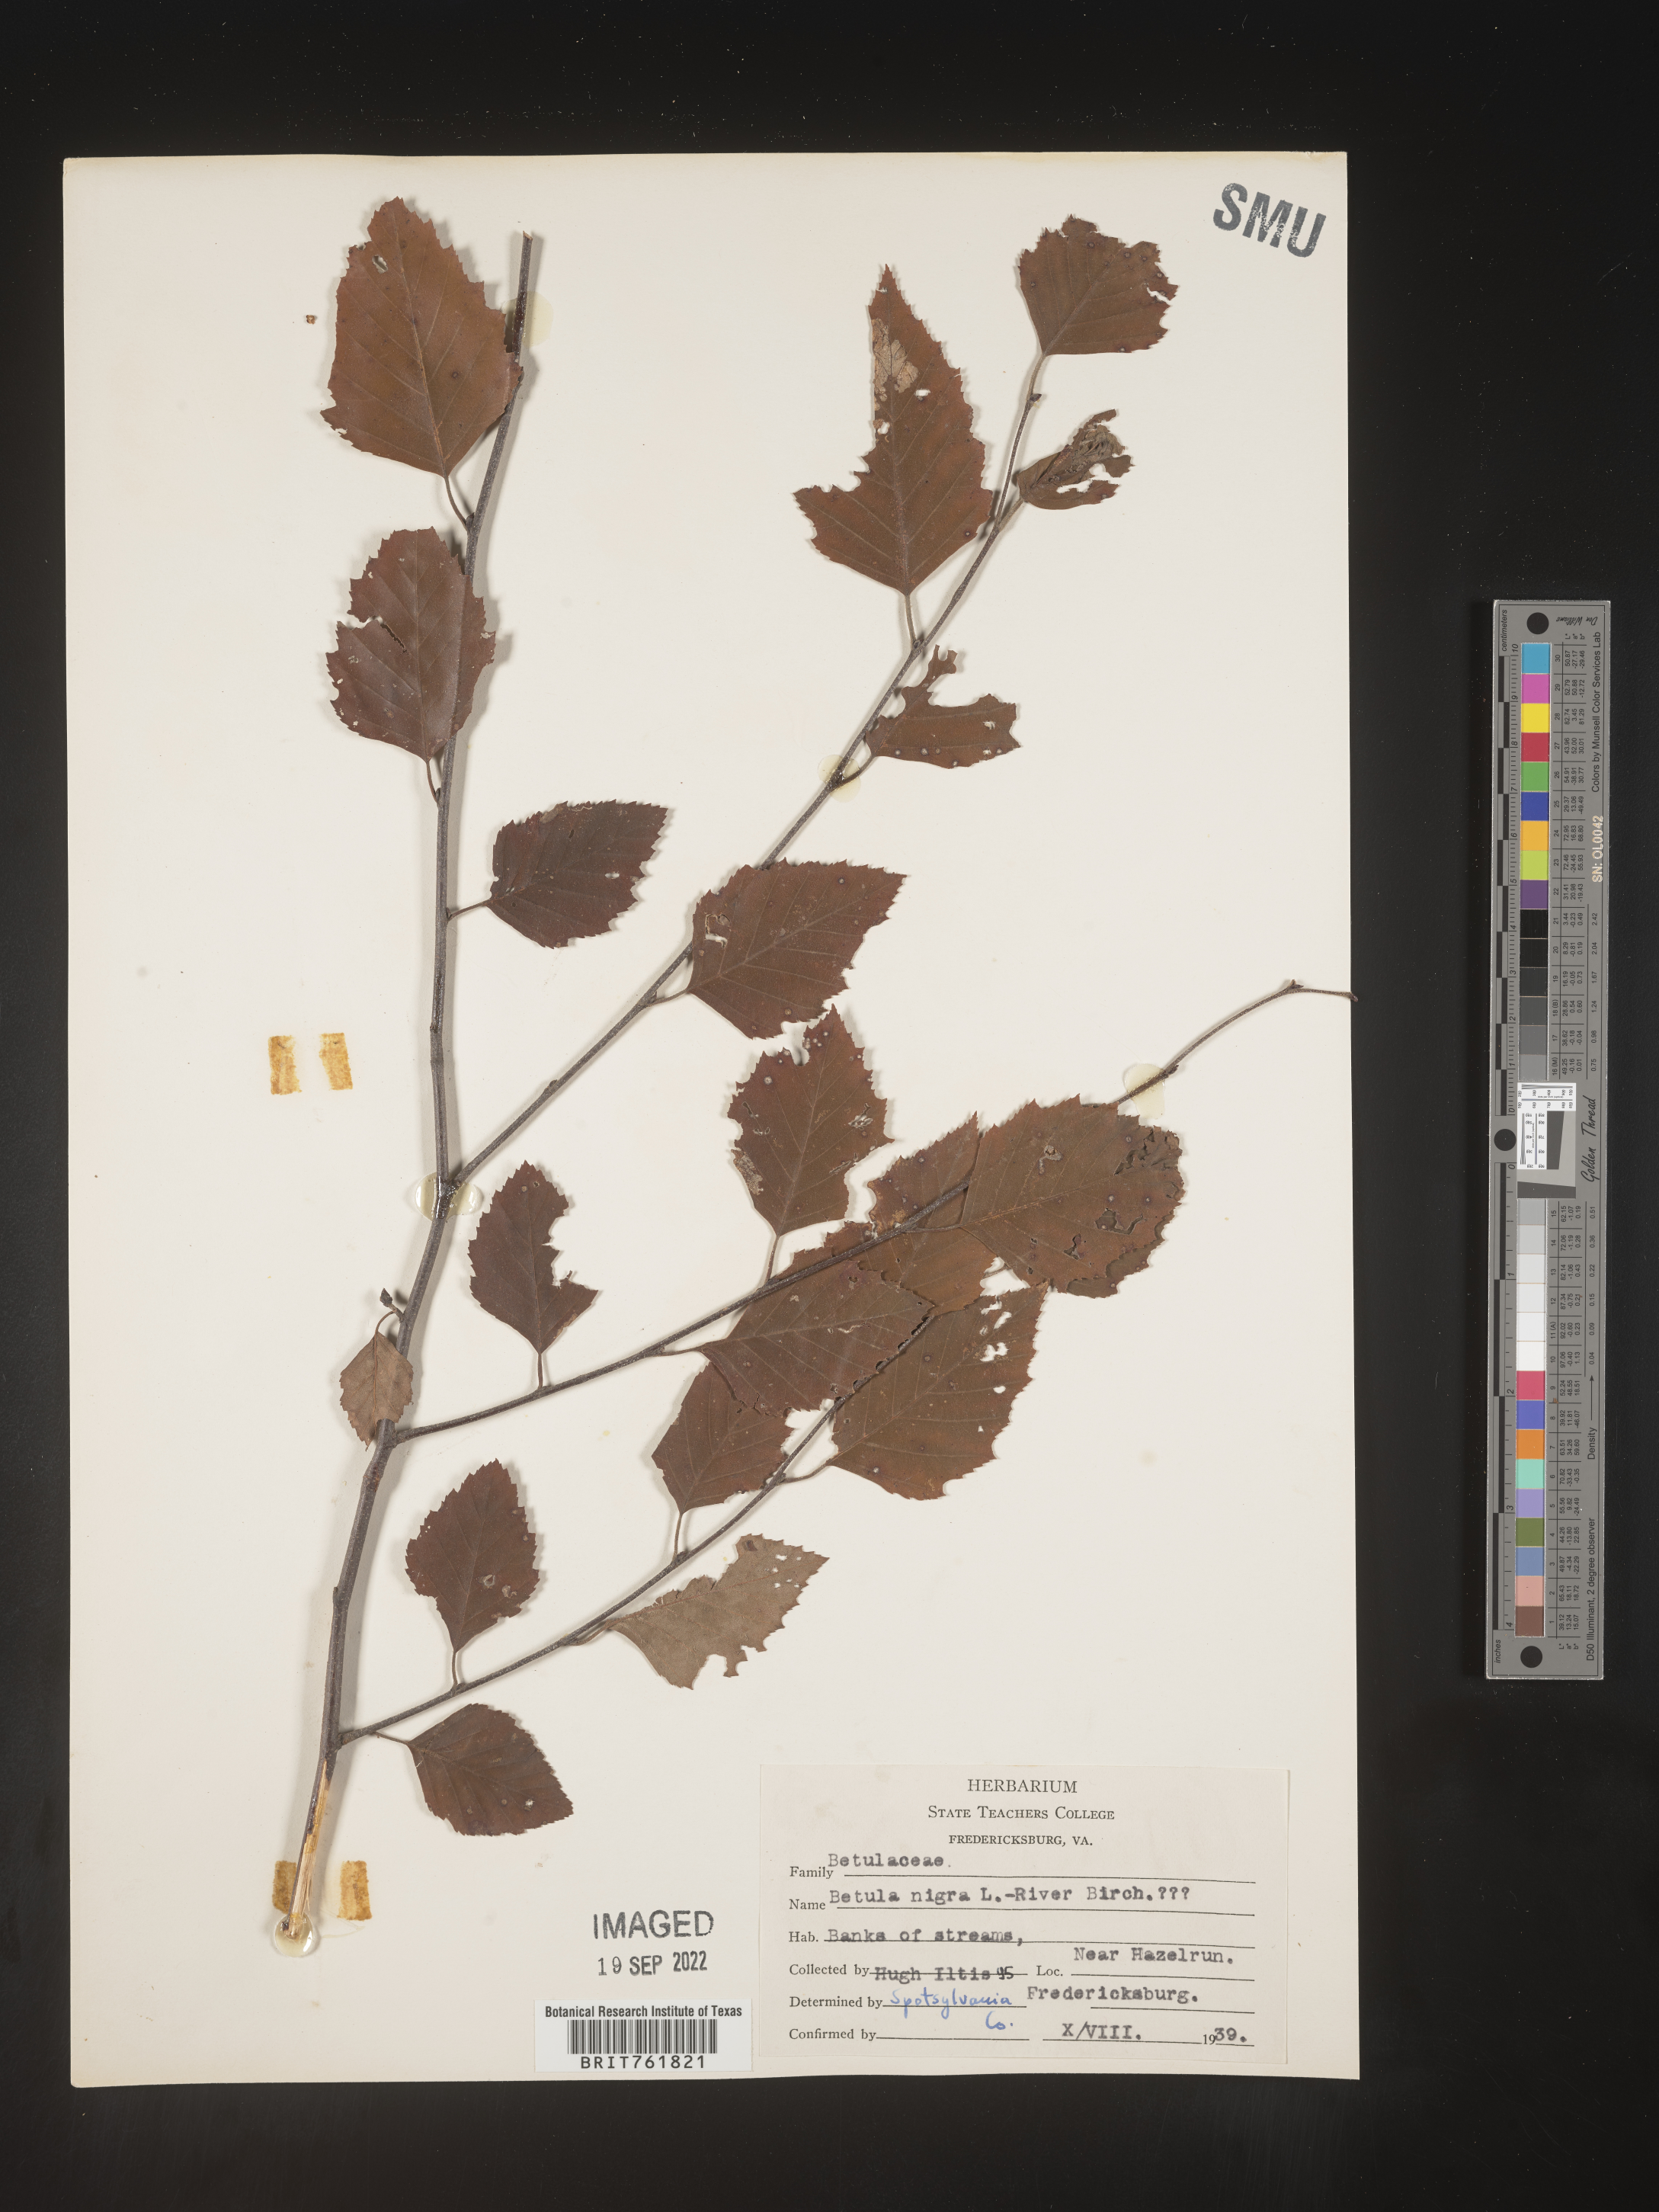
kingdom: Plantae
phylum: Tracheophyta
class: Magnoliopsida
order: Fagales
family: Betulaceae
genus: Betula
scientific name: Betula nigra
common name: Black birch
